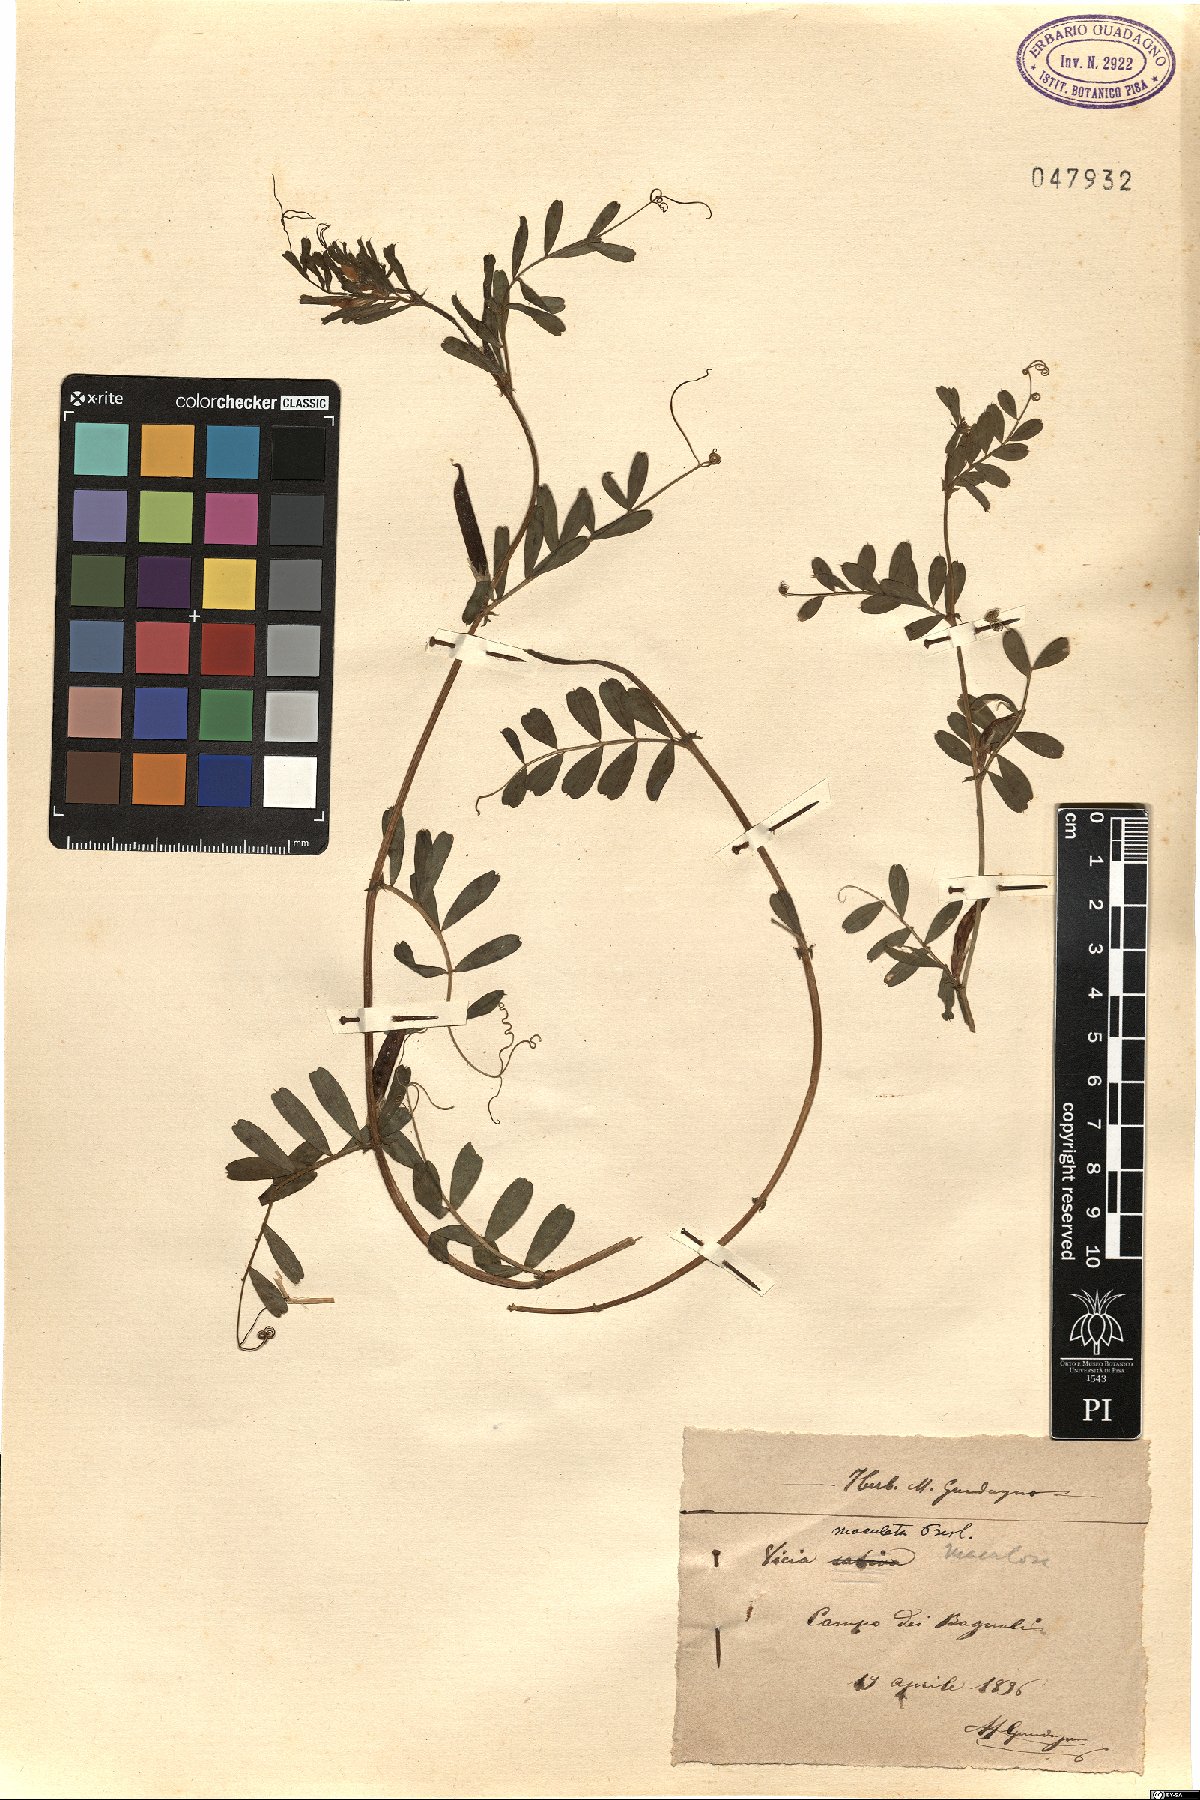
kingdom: Plantae
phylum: Tracheophyta
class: Magnoliopsida
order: Fabales
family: Fabaceae
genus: Vicia
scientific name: Vicia sativa
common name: Garden vetch
